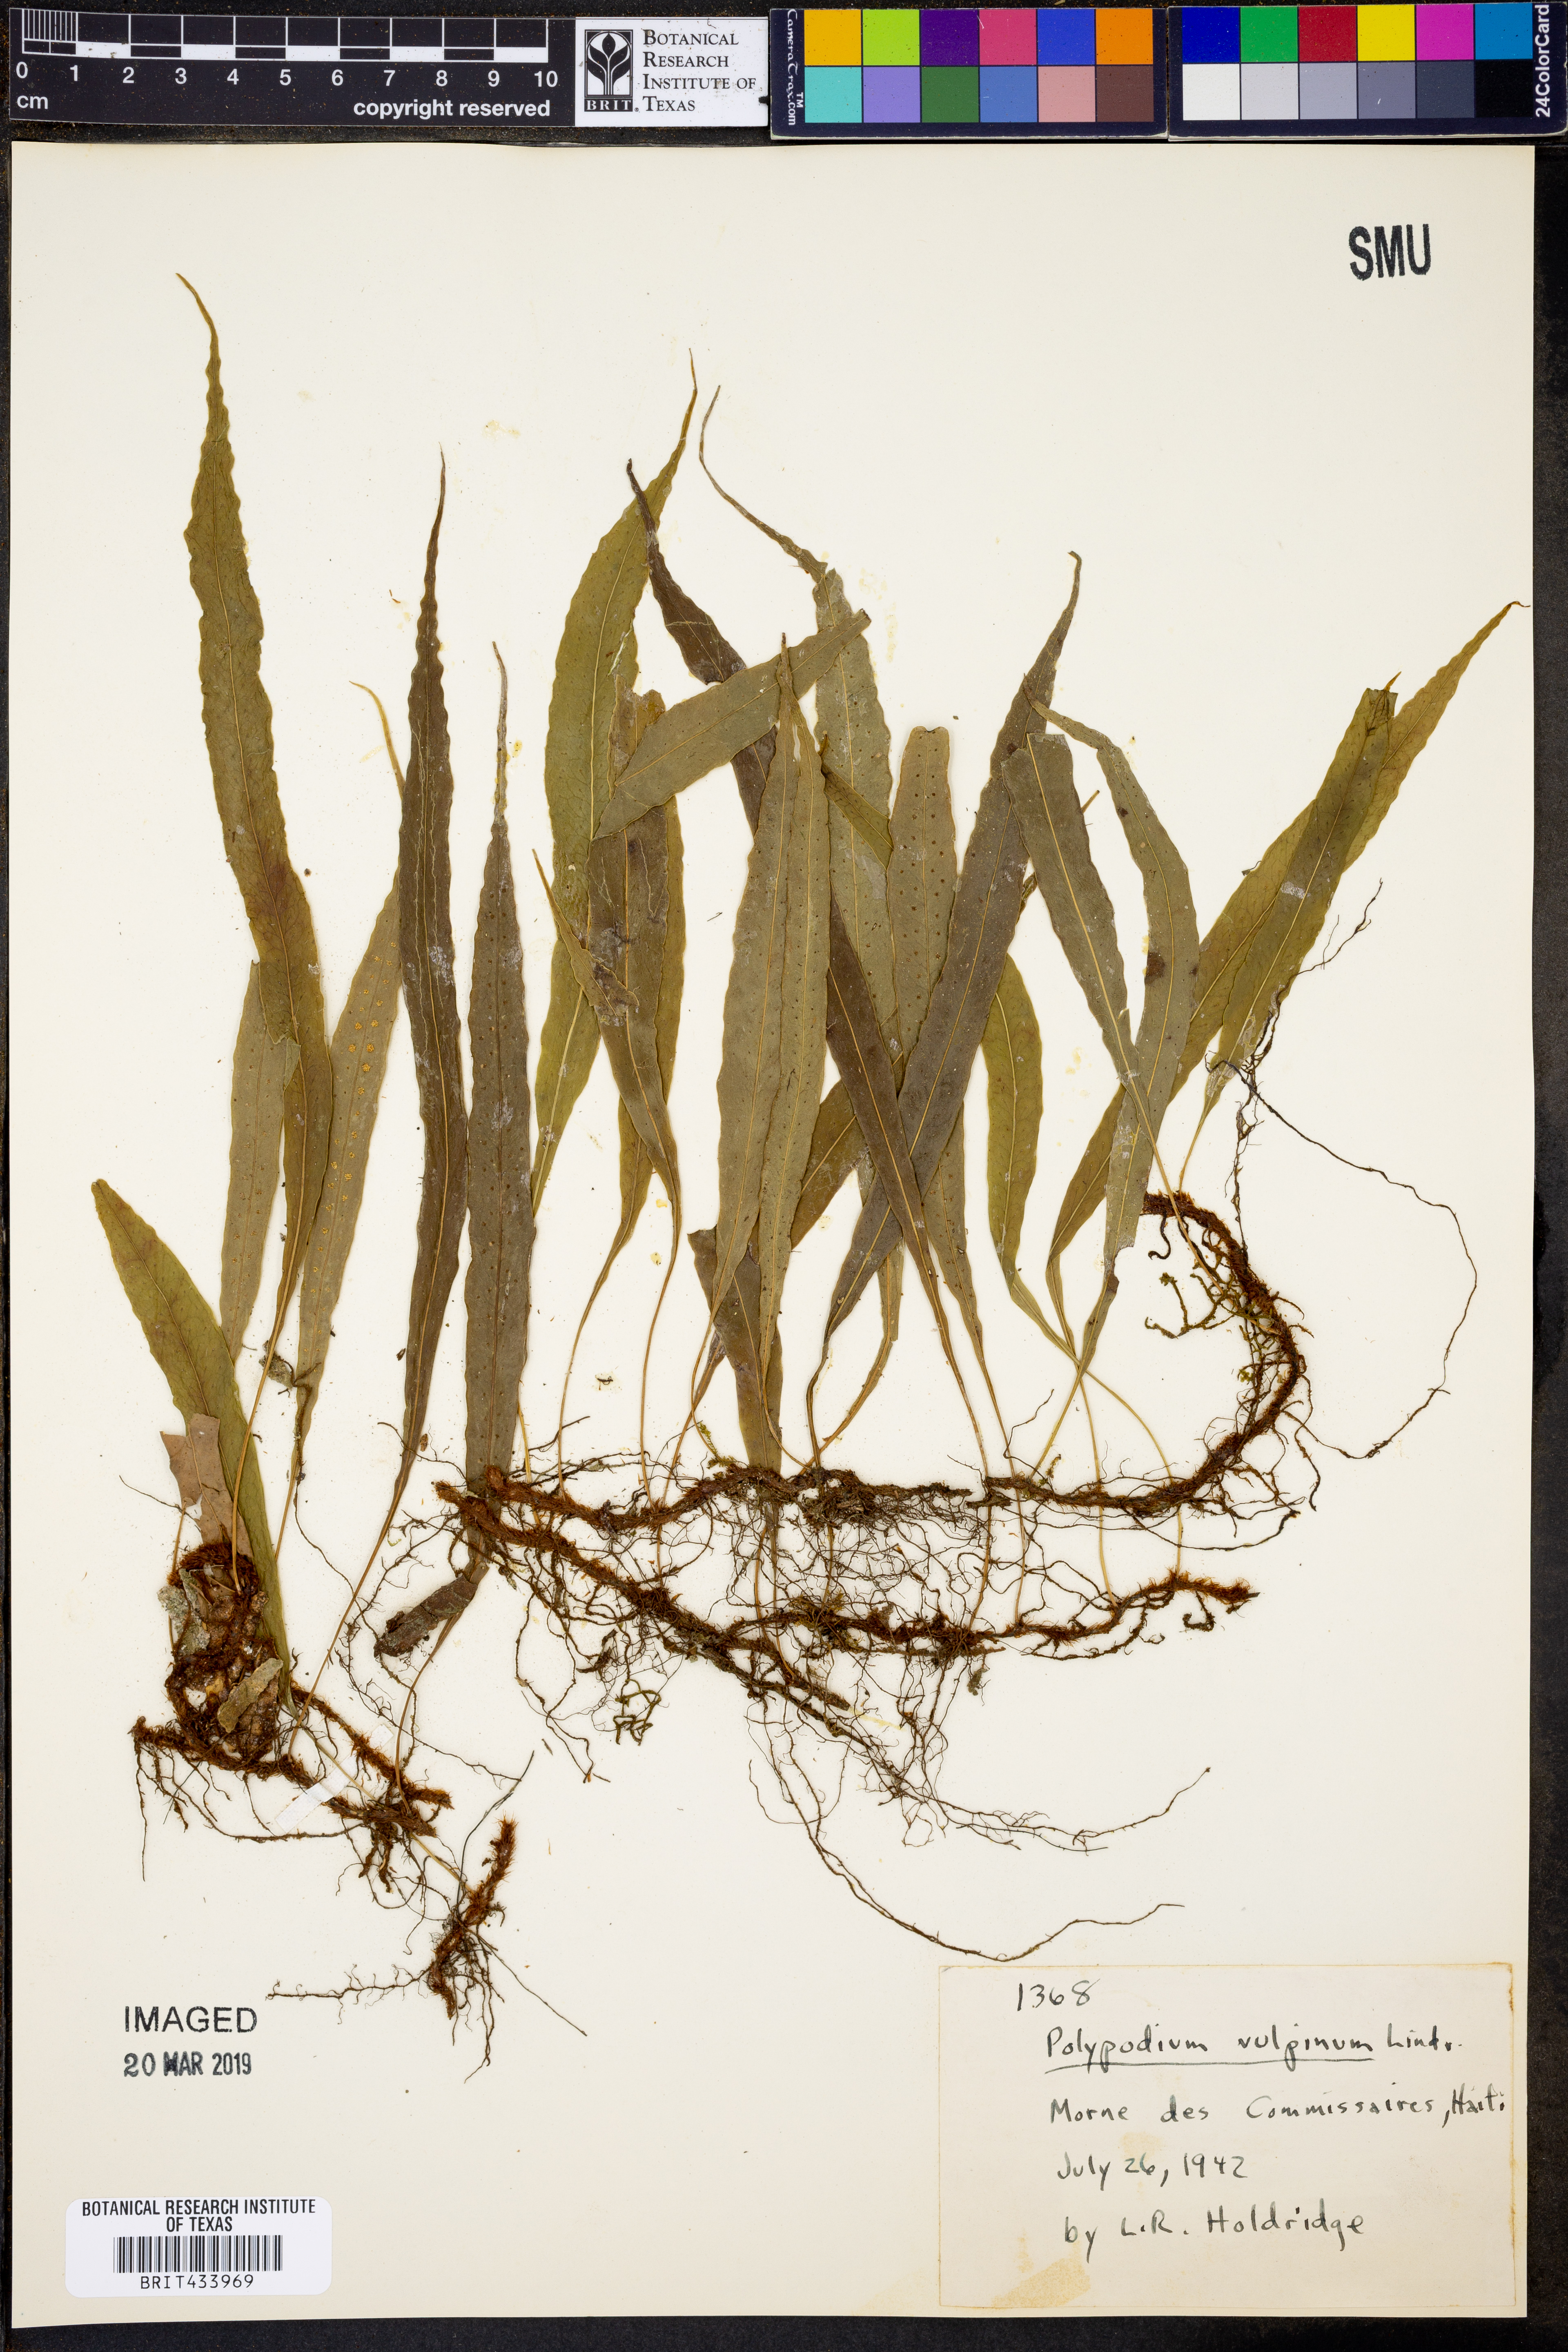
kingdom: Plantae
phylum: Tracheophyta
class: Polypodiopsida
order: Polypodiales
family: Polypodiaceae
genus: Campyloneurum
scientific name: Campyloneurum vulpinum
